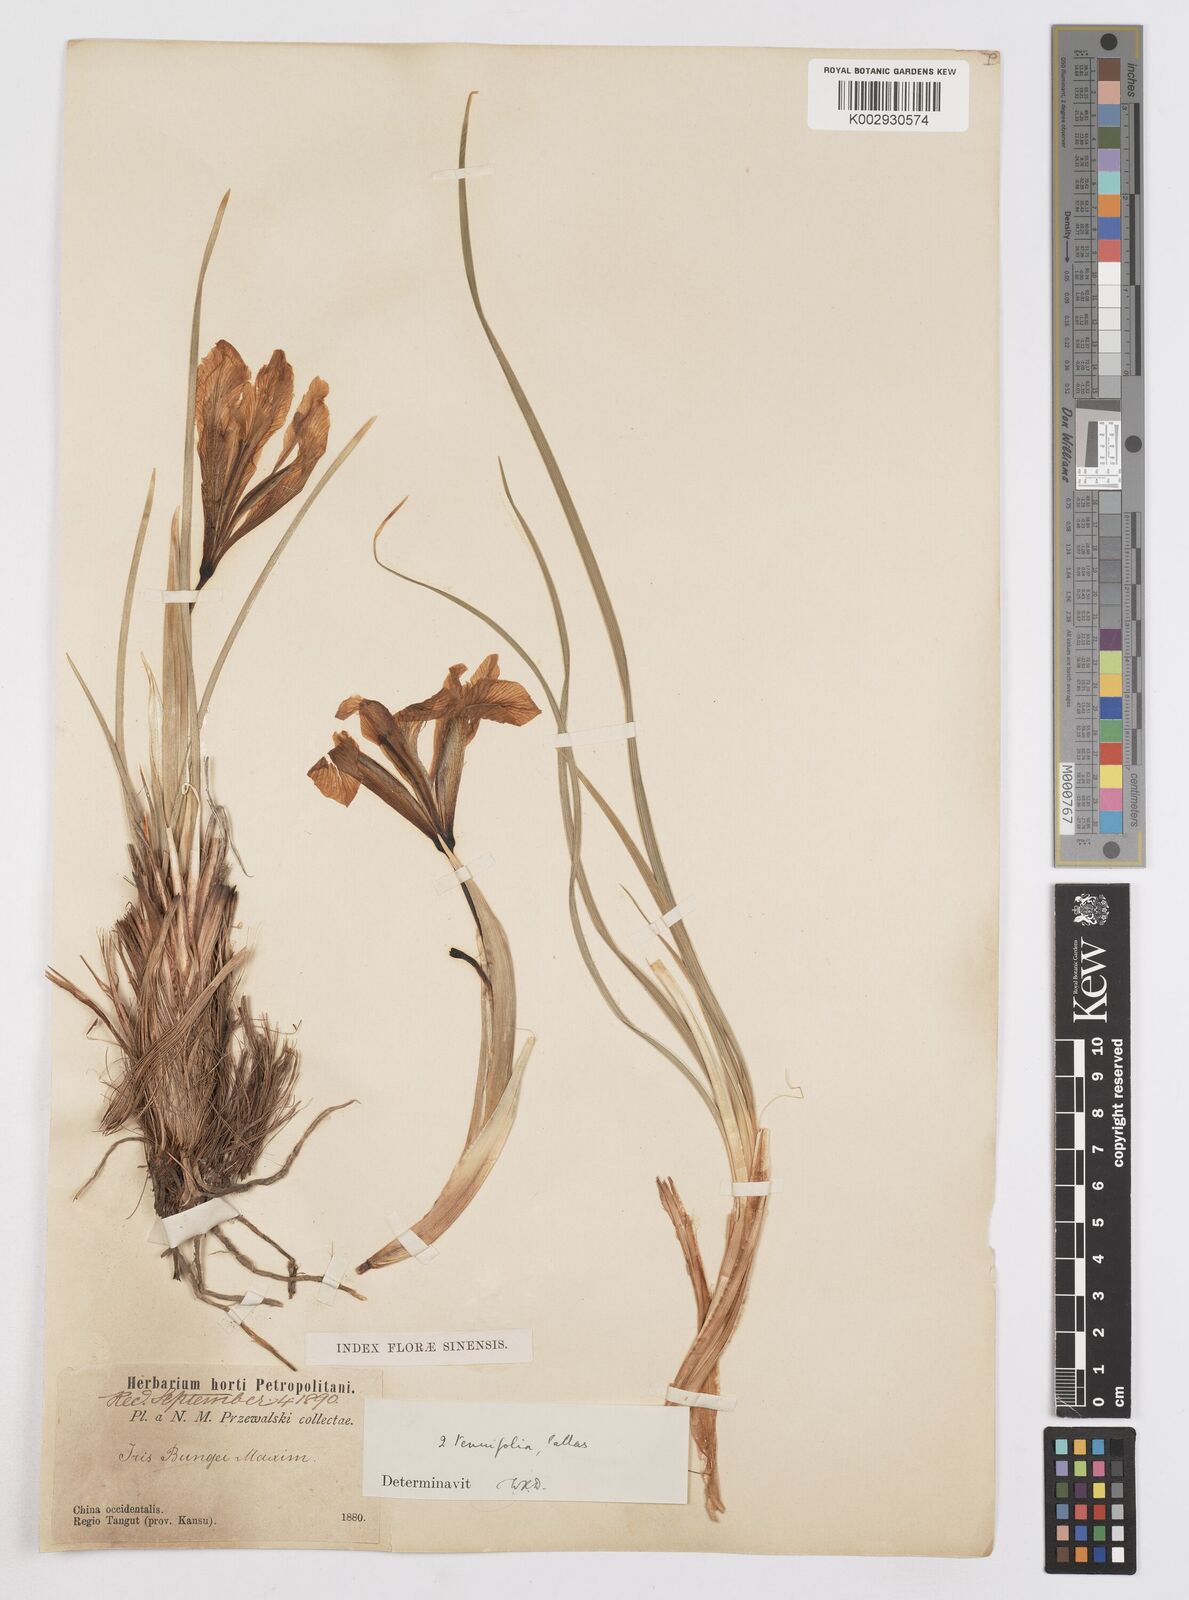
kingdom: Plantae
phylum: Tracheophyta
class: Liliopsida
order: Asparagales
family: Iridaceae
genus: Iris
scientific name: Iris tenuifolia
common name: Slender-leaf iris
